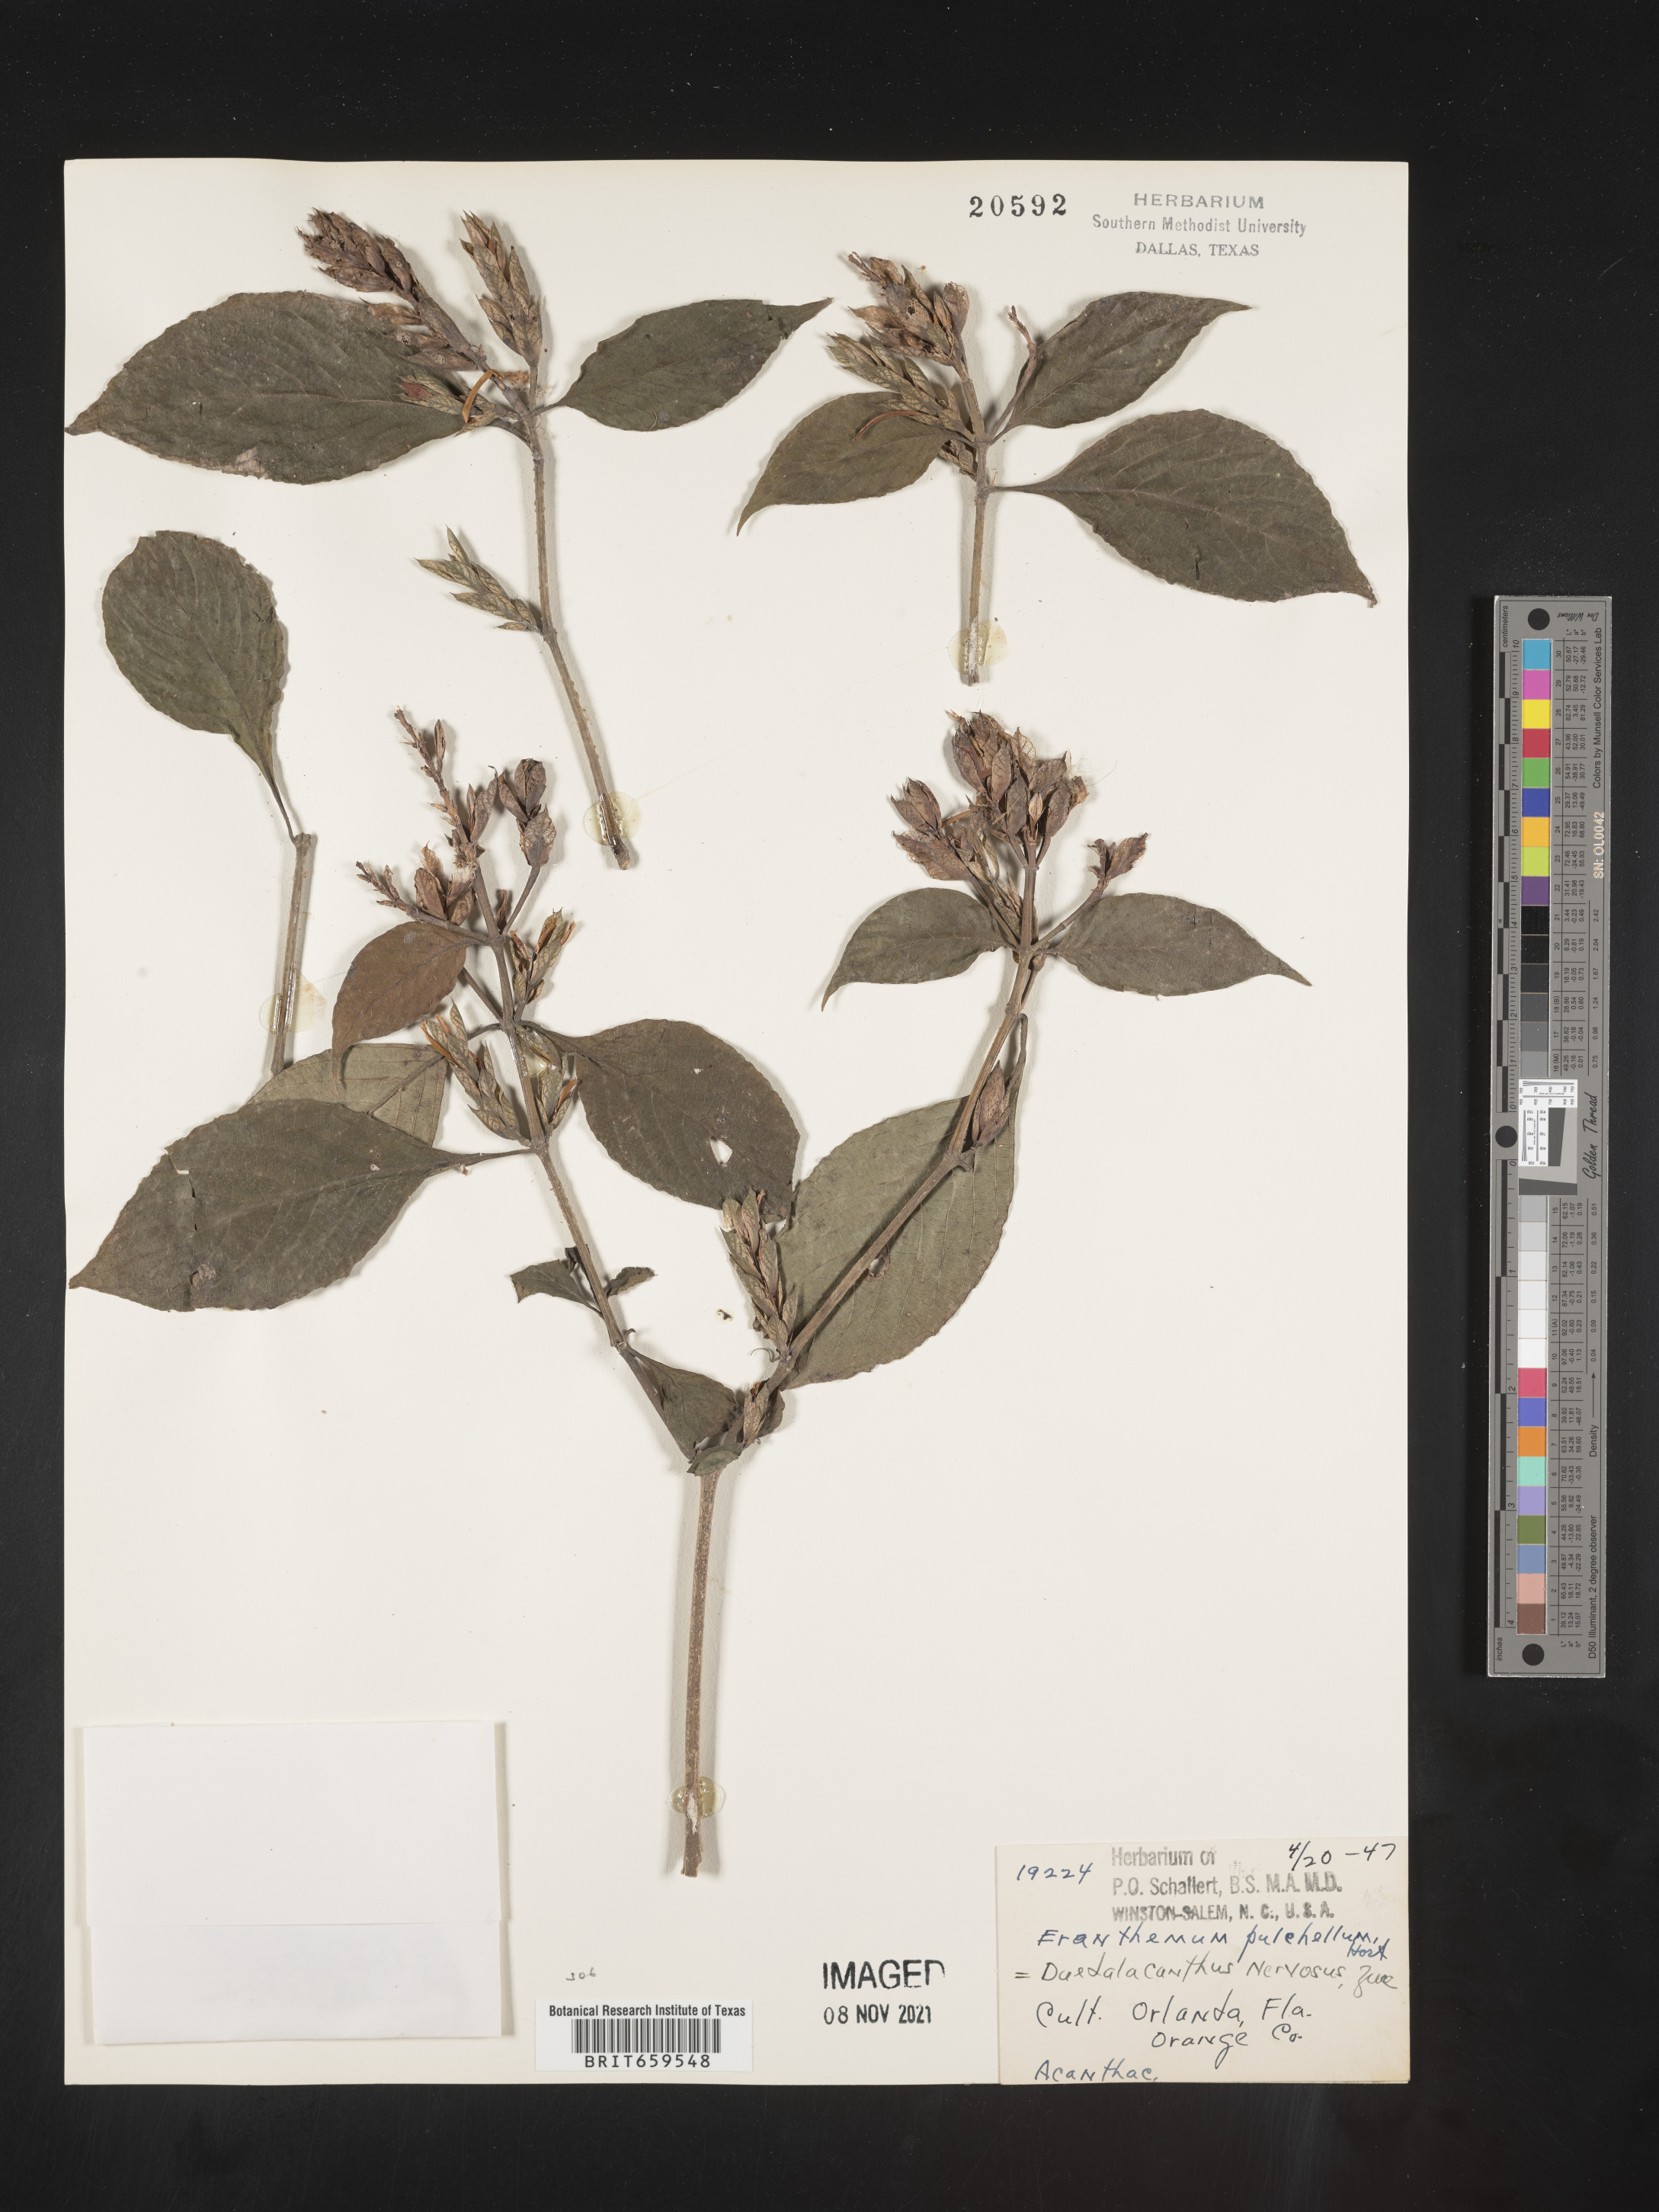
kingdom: Plantae
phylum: Tracheophyta
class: Magnoliopsida
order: Lamiales
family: Acanthaceae
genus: Eranthemum
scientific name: Eranthemum
